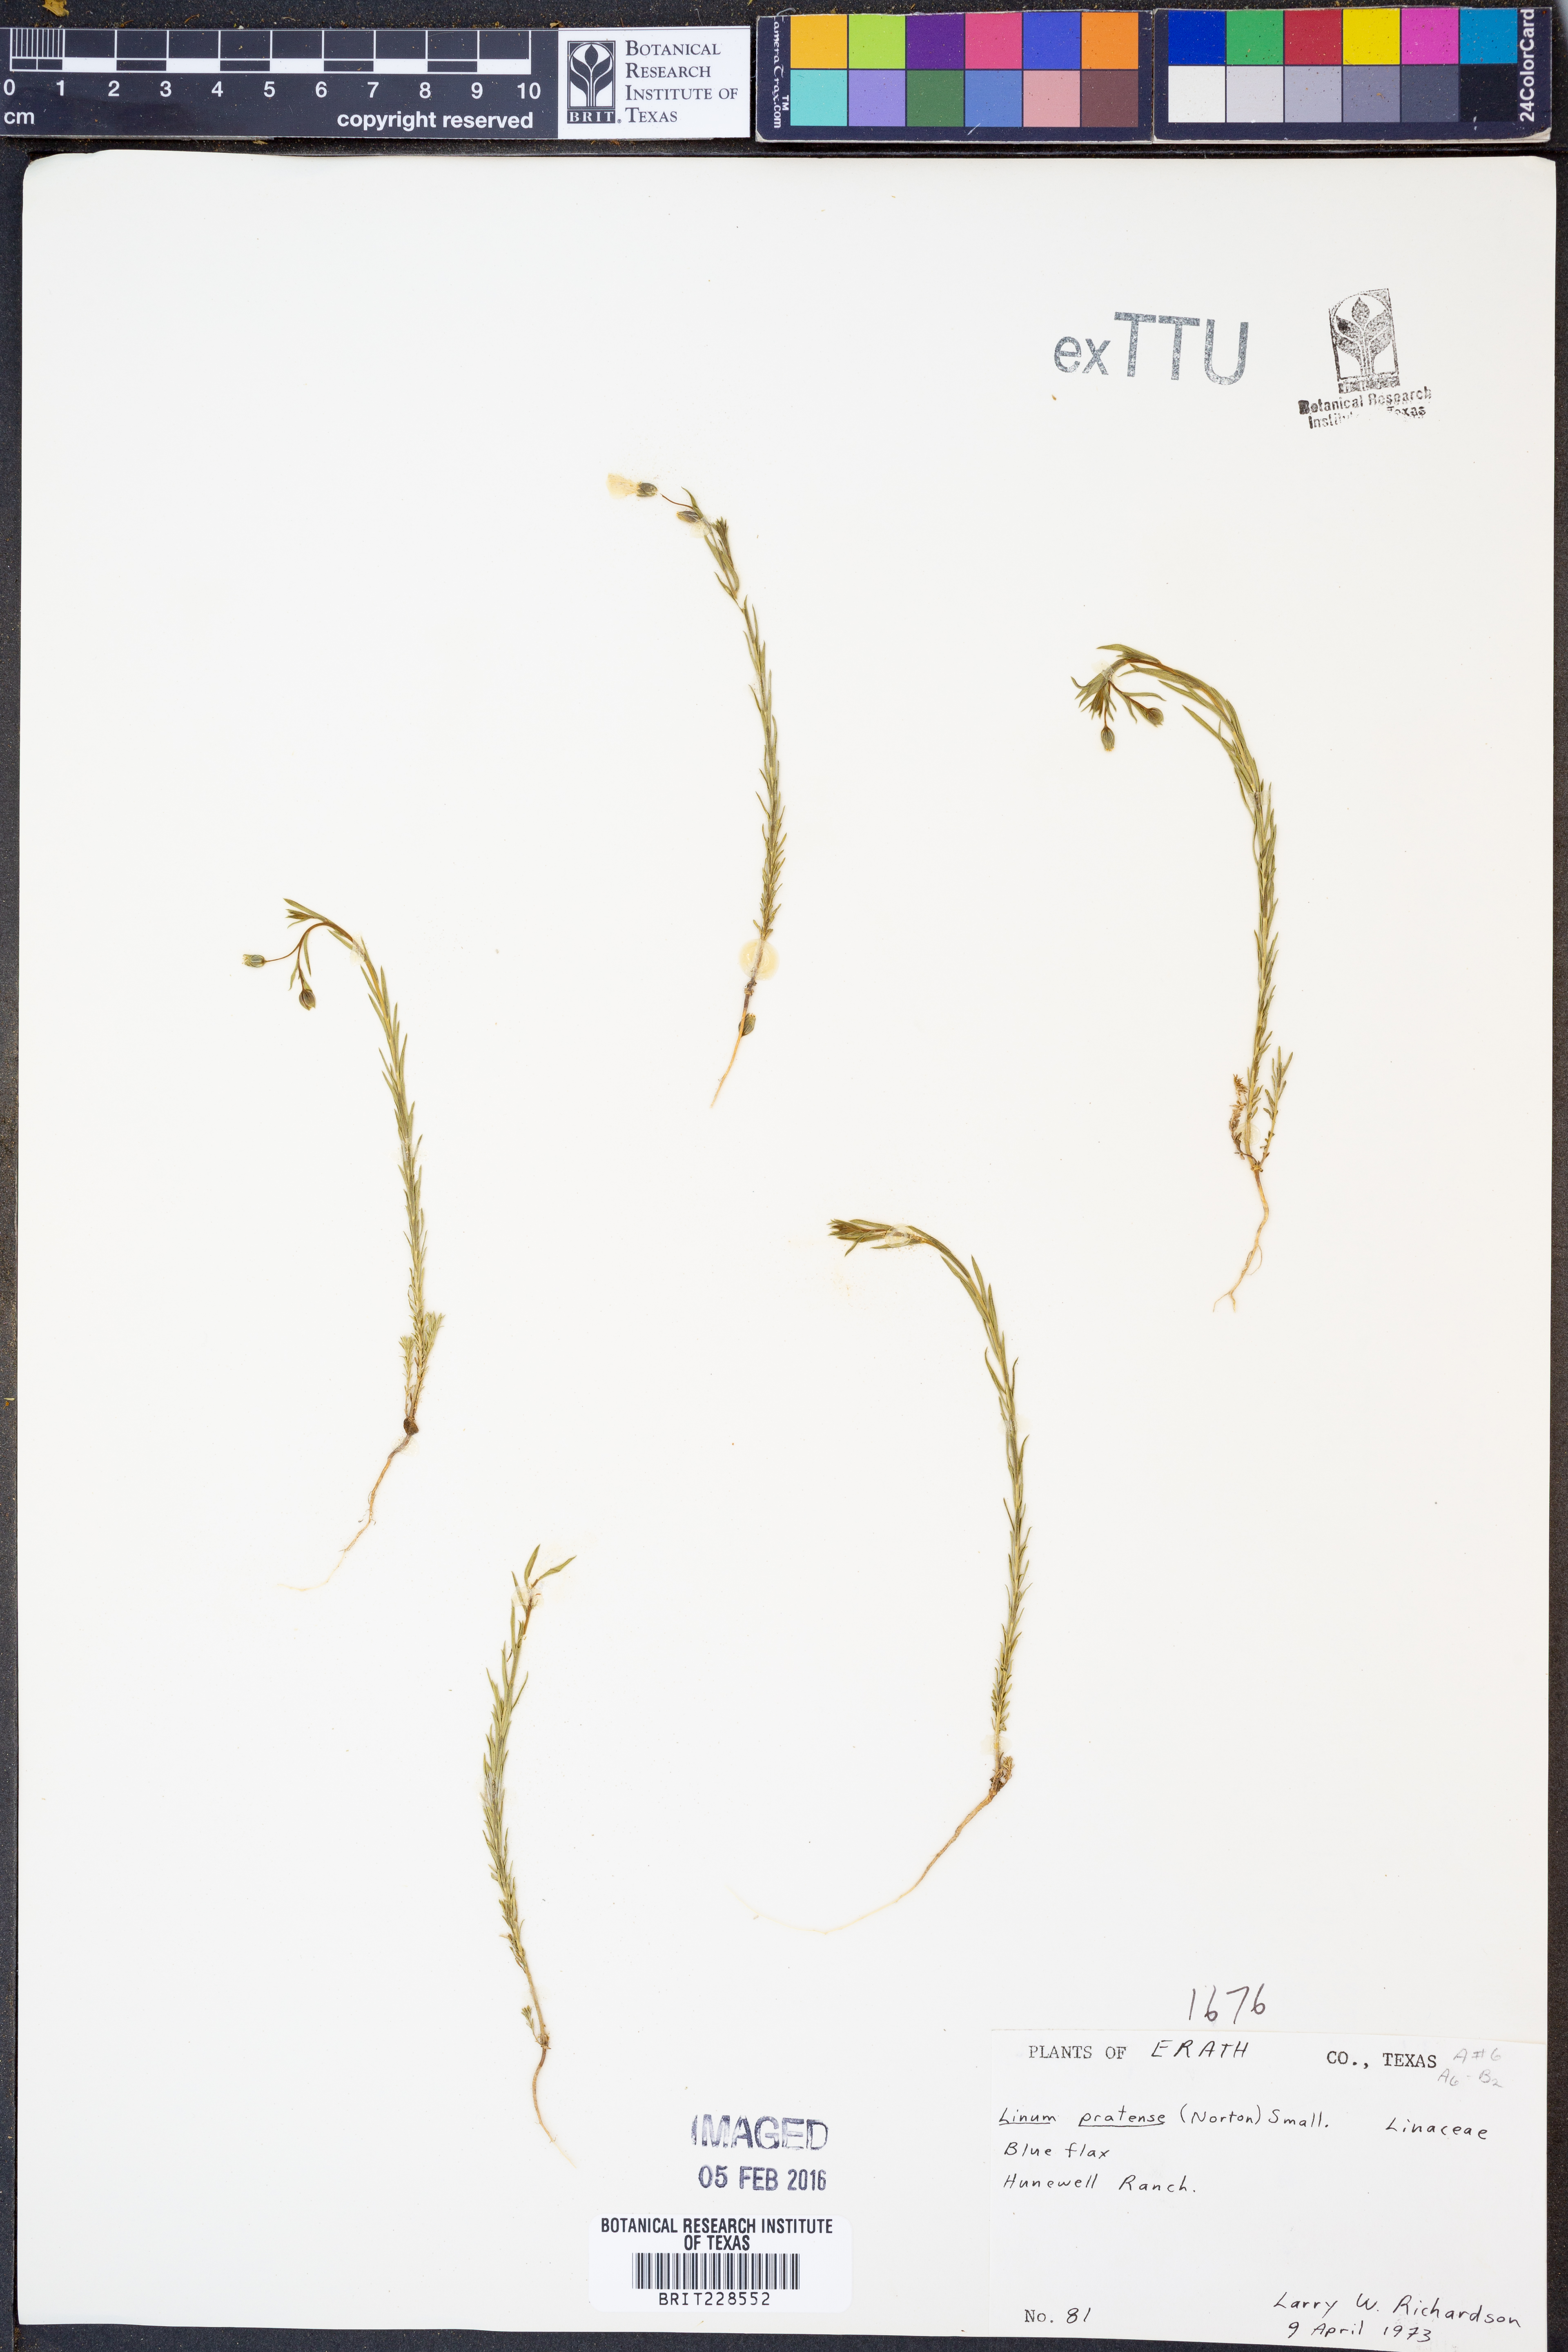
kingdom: Plantae
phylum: Tracheophyta
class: Magnoliopsida
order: Malpighiales
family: Linaceae
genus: Linum
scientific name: Linum pratense
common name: Norton's flax
